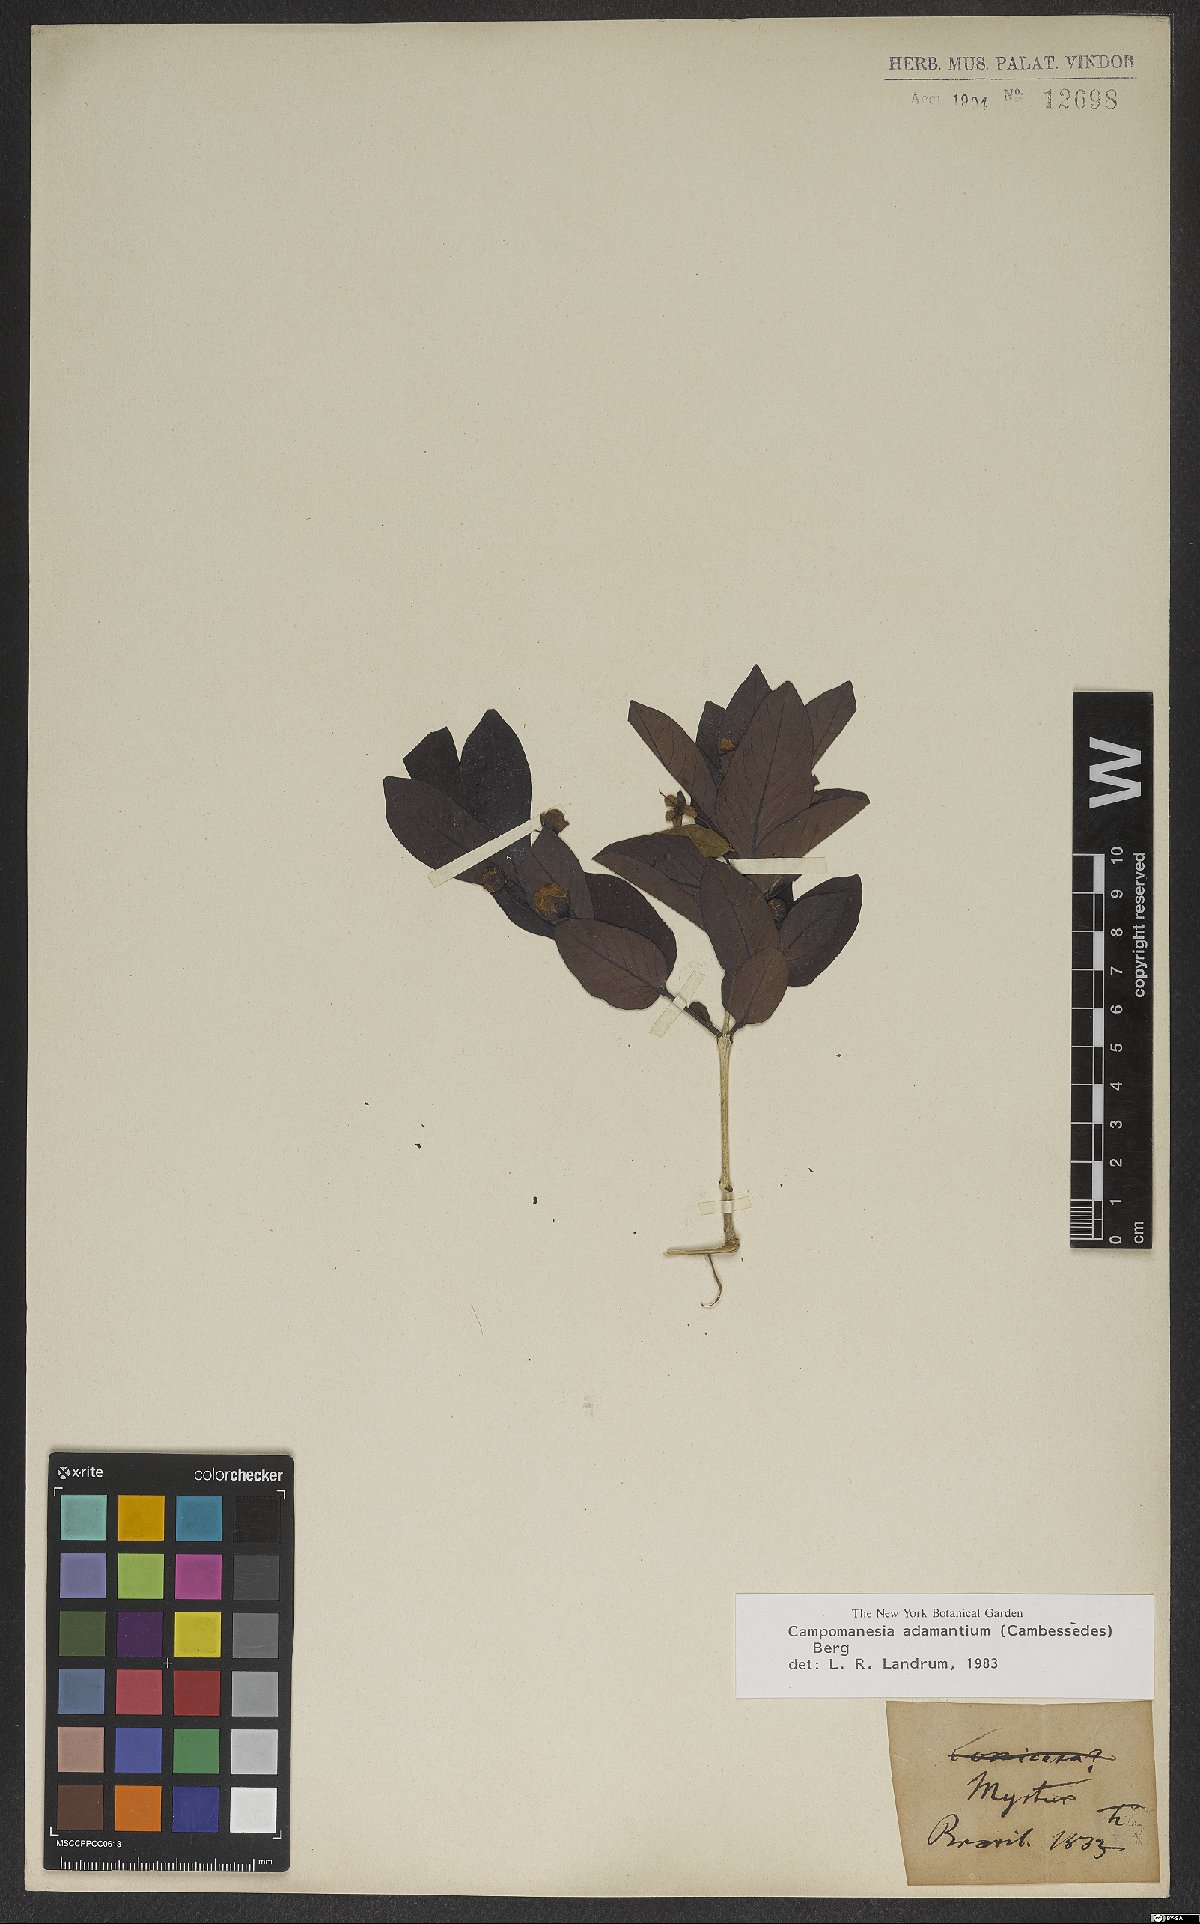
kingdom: Plantae
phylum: Tracheophyta
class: Magnoliopsida
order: Myrtales
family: Myrtaceae
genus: Campomanesia
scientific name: Campomanesia adamantium
